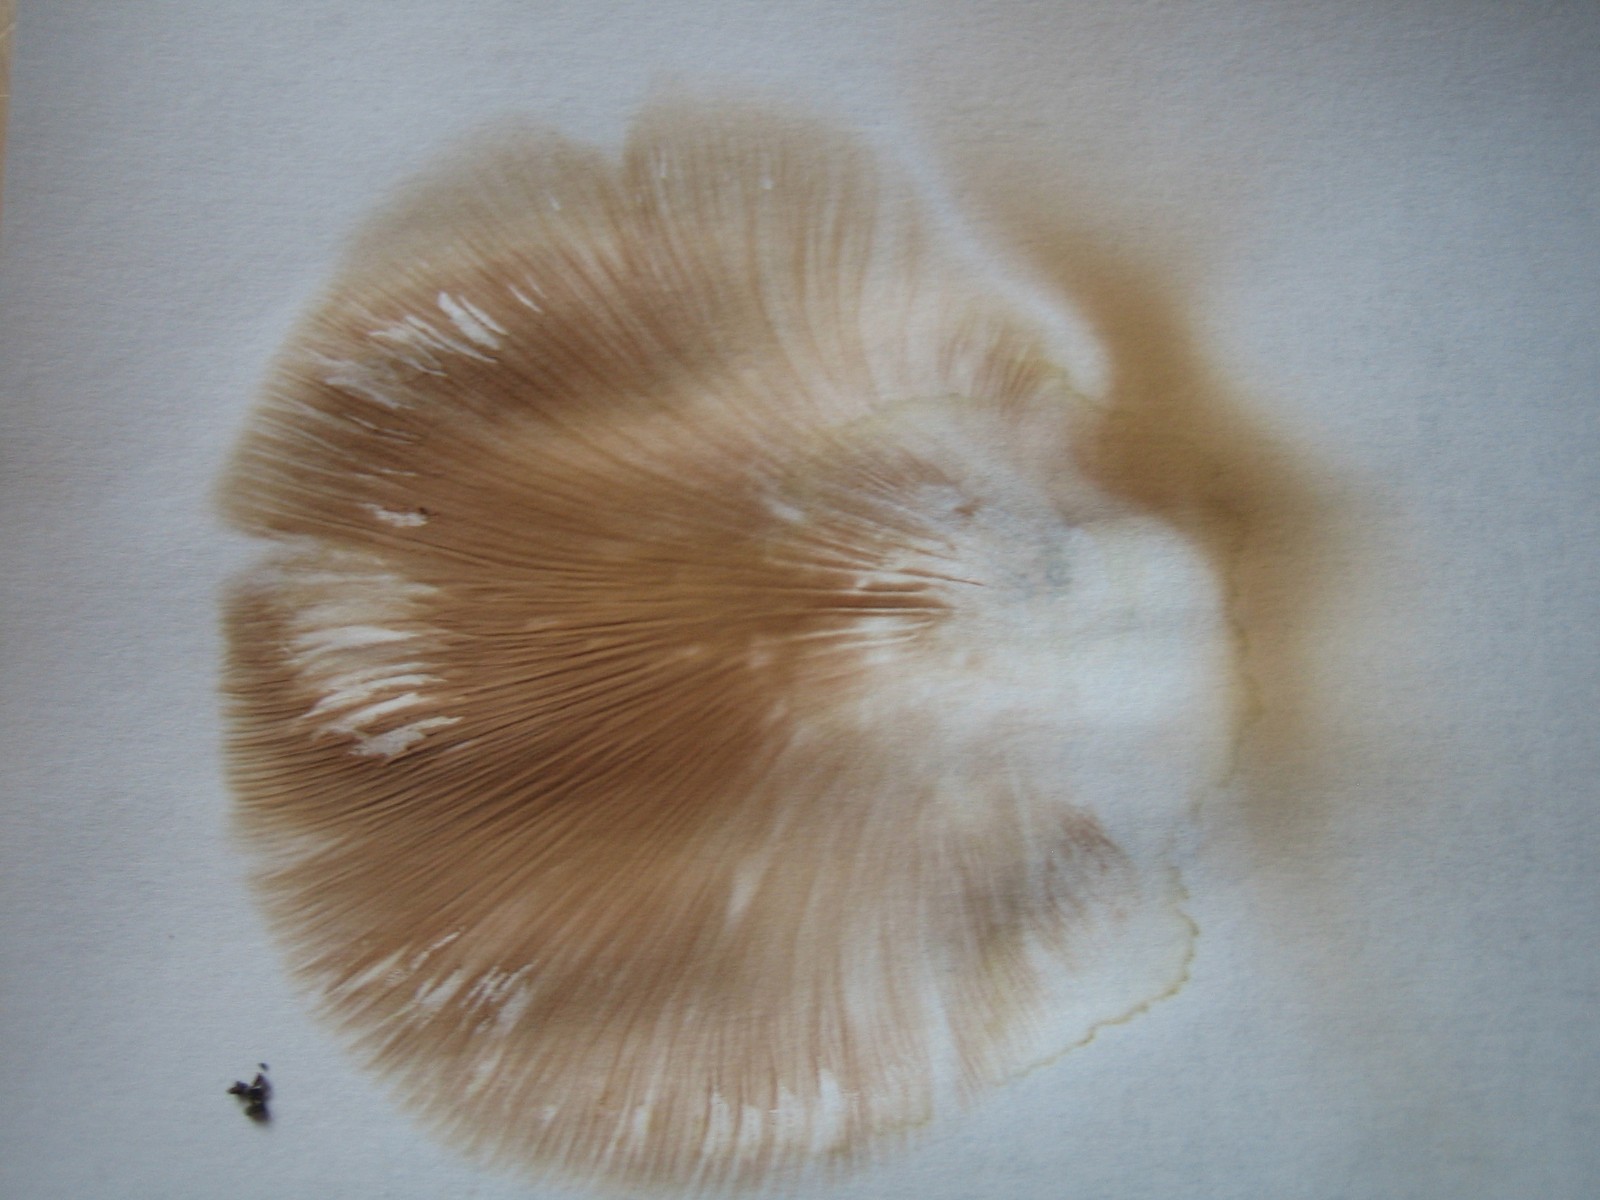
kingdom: Fungi
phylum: Basidiomycota
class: Agaricomycetes
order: Agaricales
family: Entolomataceae
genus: Clitopilus
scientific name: Clitopilus prunulus
